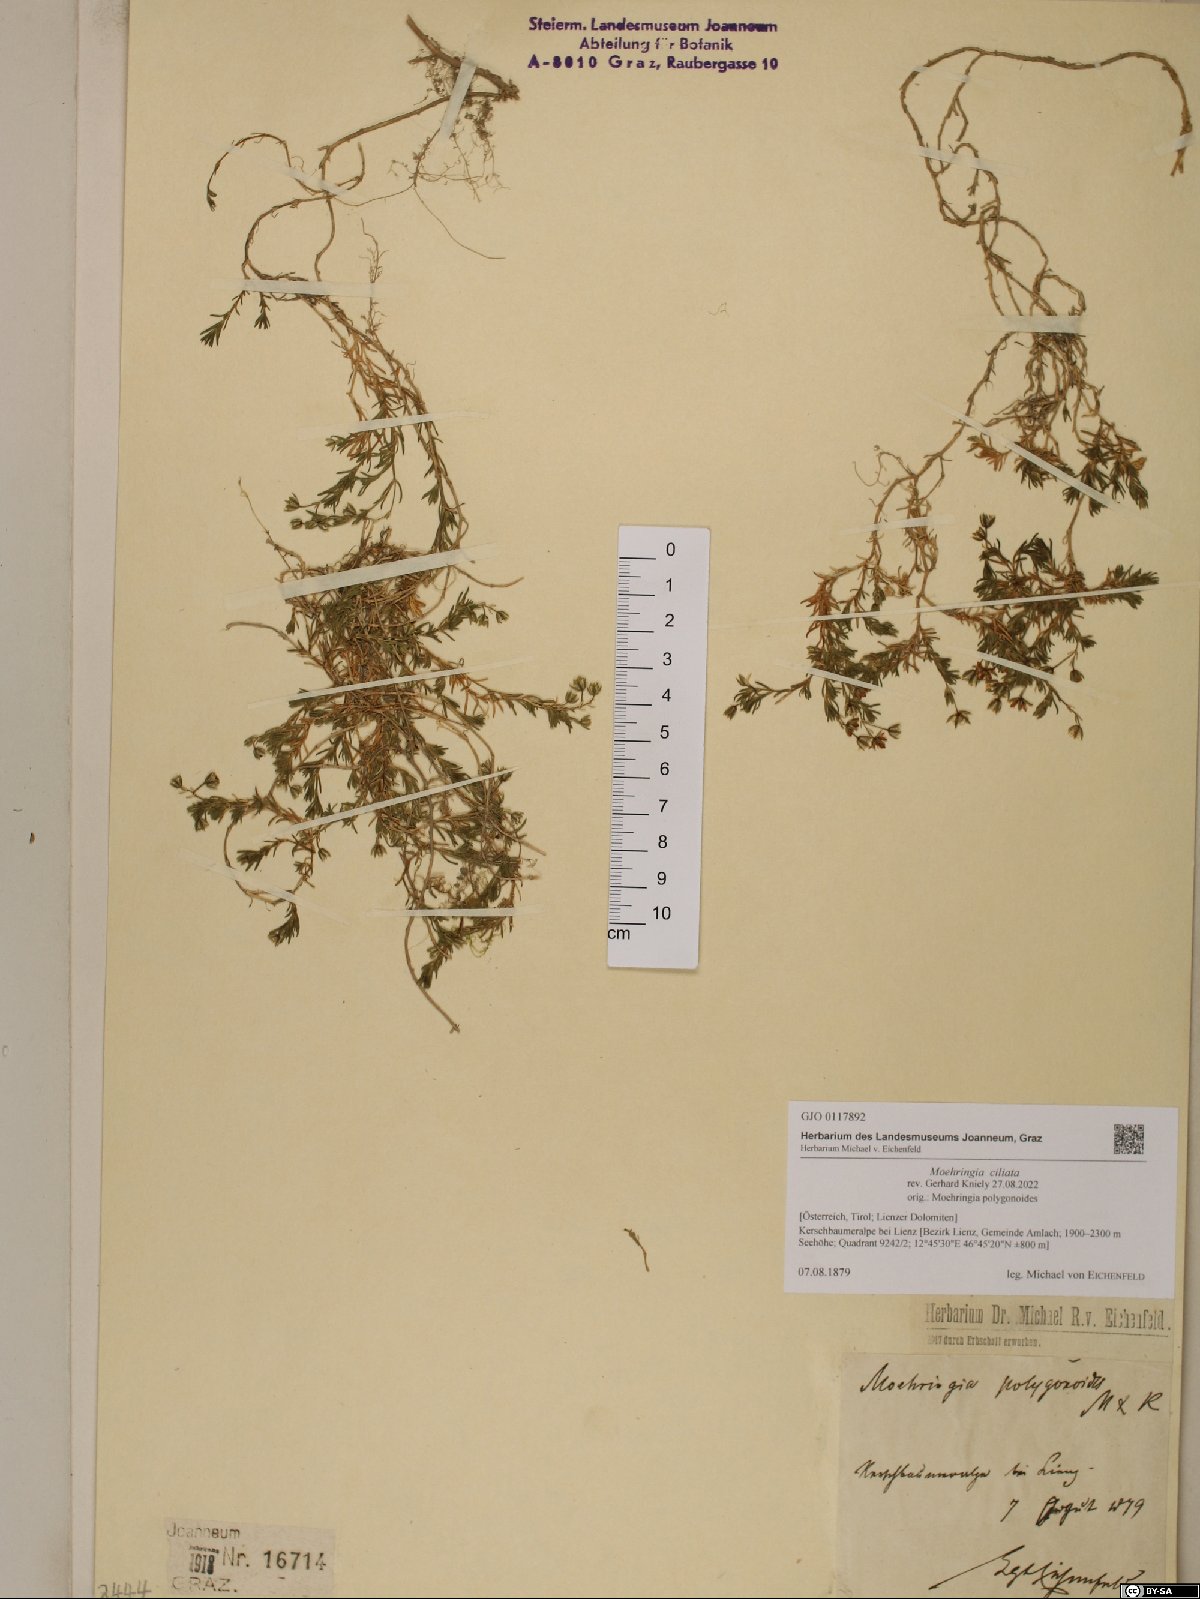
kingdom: Plantae
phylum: Tracheophyta
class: Magnoliopsida
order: Caryophyllales
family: Caryophyllaceae
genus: Moehringia
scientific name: Moehringia ciliata
